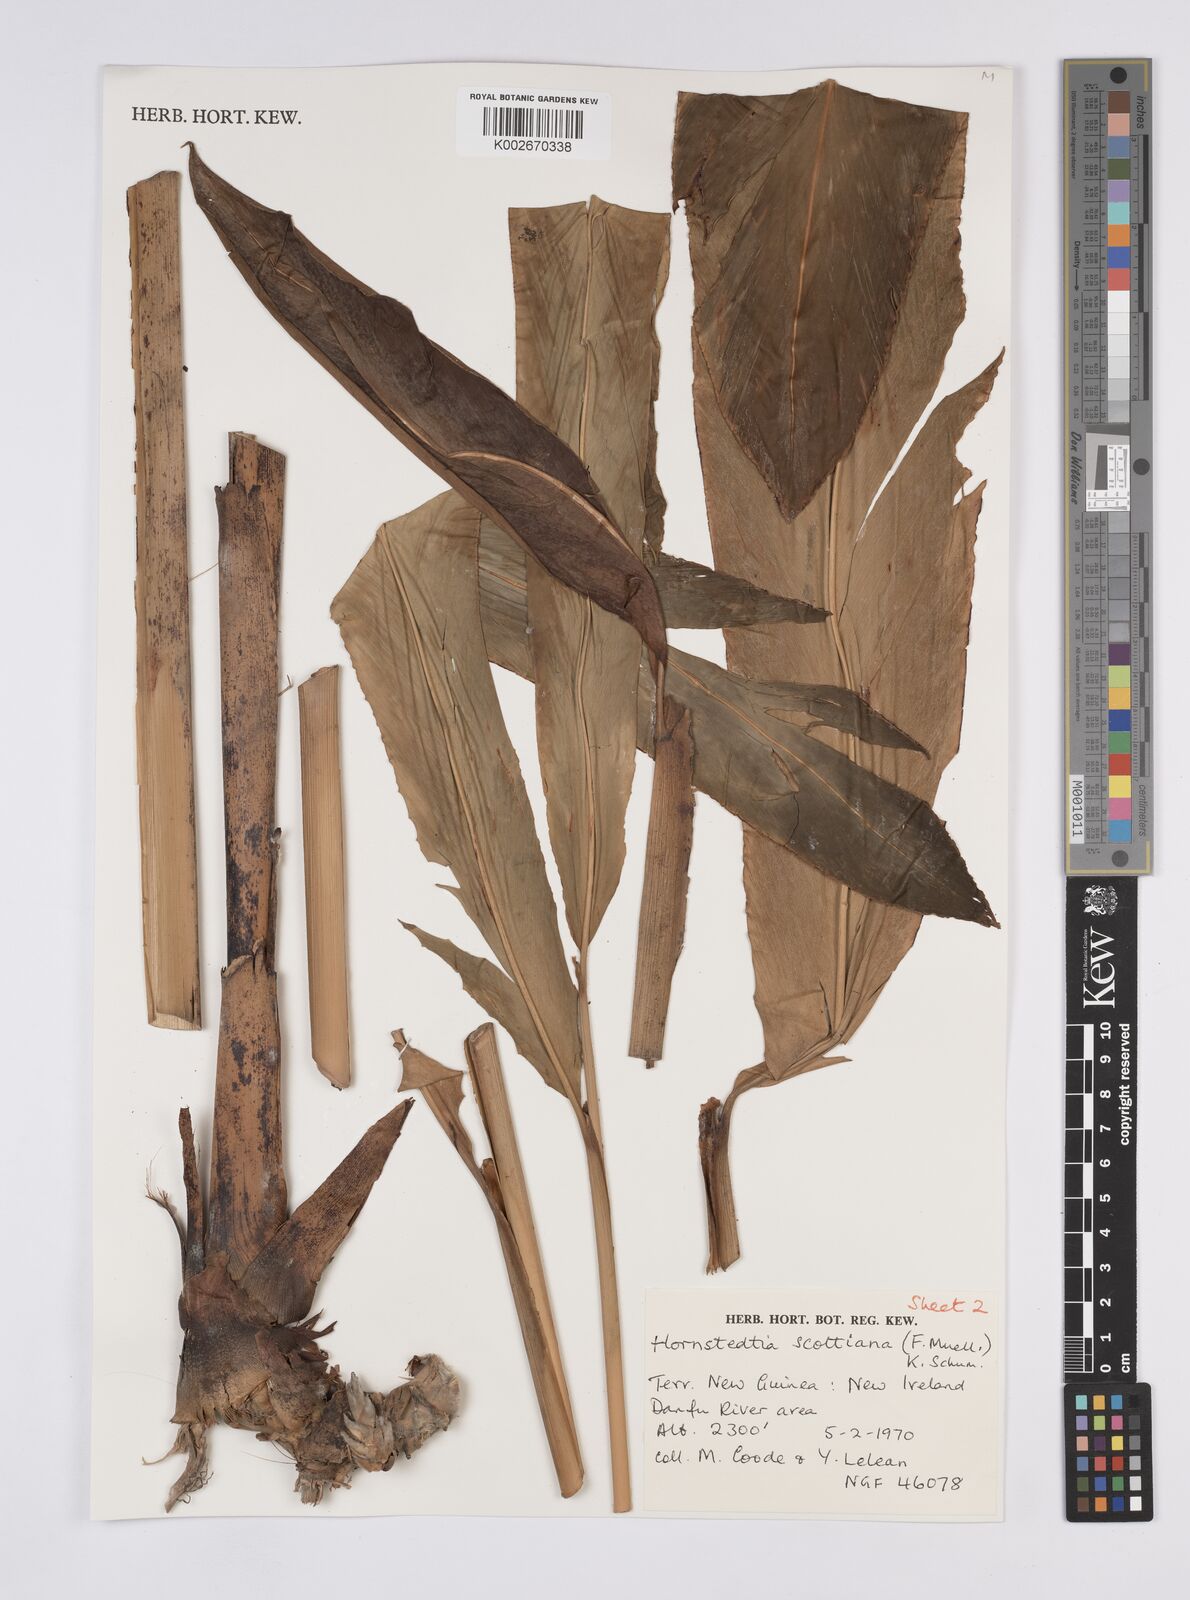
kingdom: Plantae
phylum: Tracheophyta
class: Liliopsida
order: Zingiberales
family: Zingiberaceae
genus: Hornstedtia
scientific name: Hornstedtia scottiana
